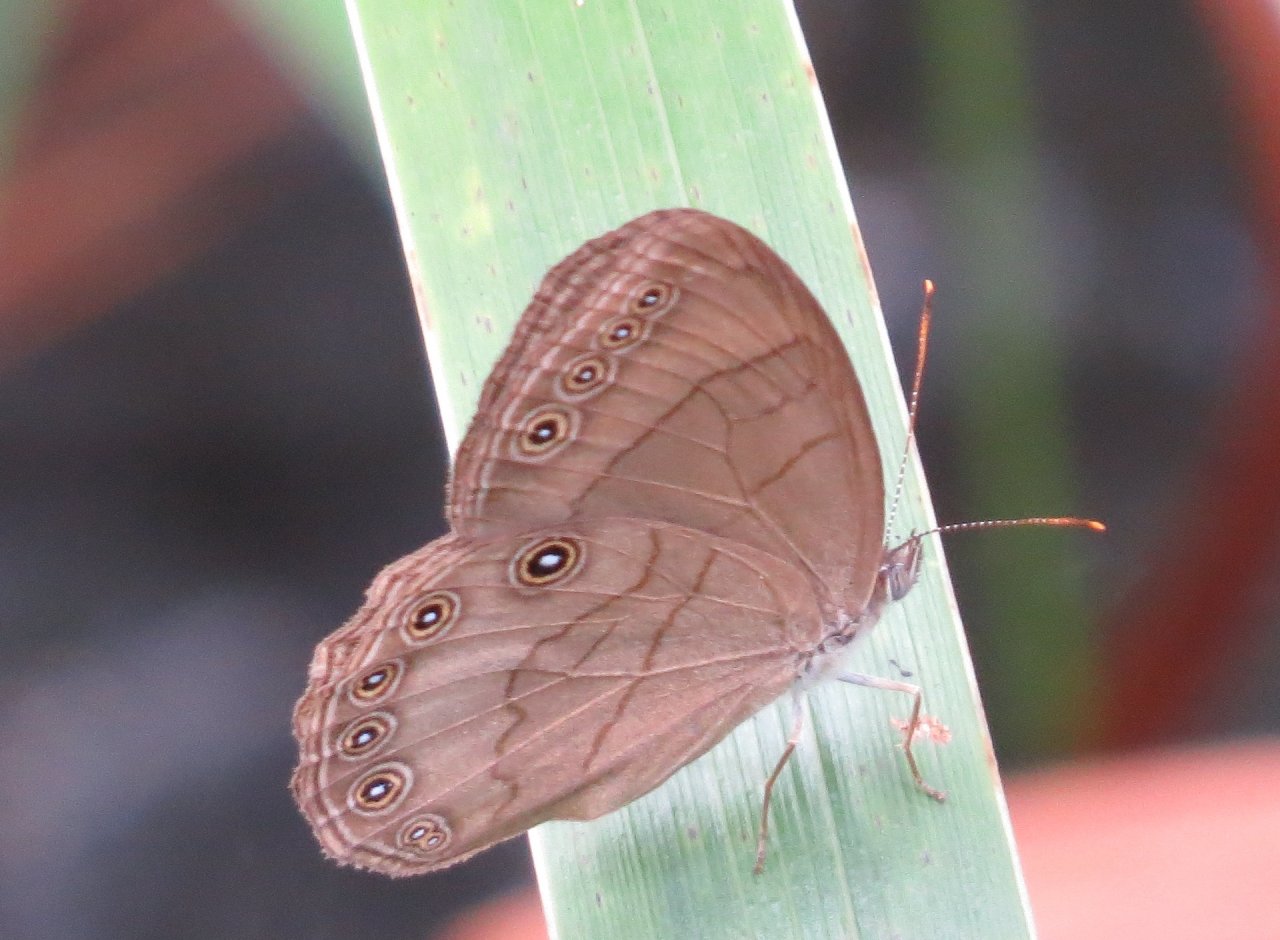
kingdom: Animalia
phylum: Arthropoda
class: Insecta
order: Lepidoptera
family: Nymphalidae
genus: Lethe
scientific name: Lethe eurydice
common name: Appalachian Eyed Brown
